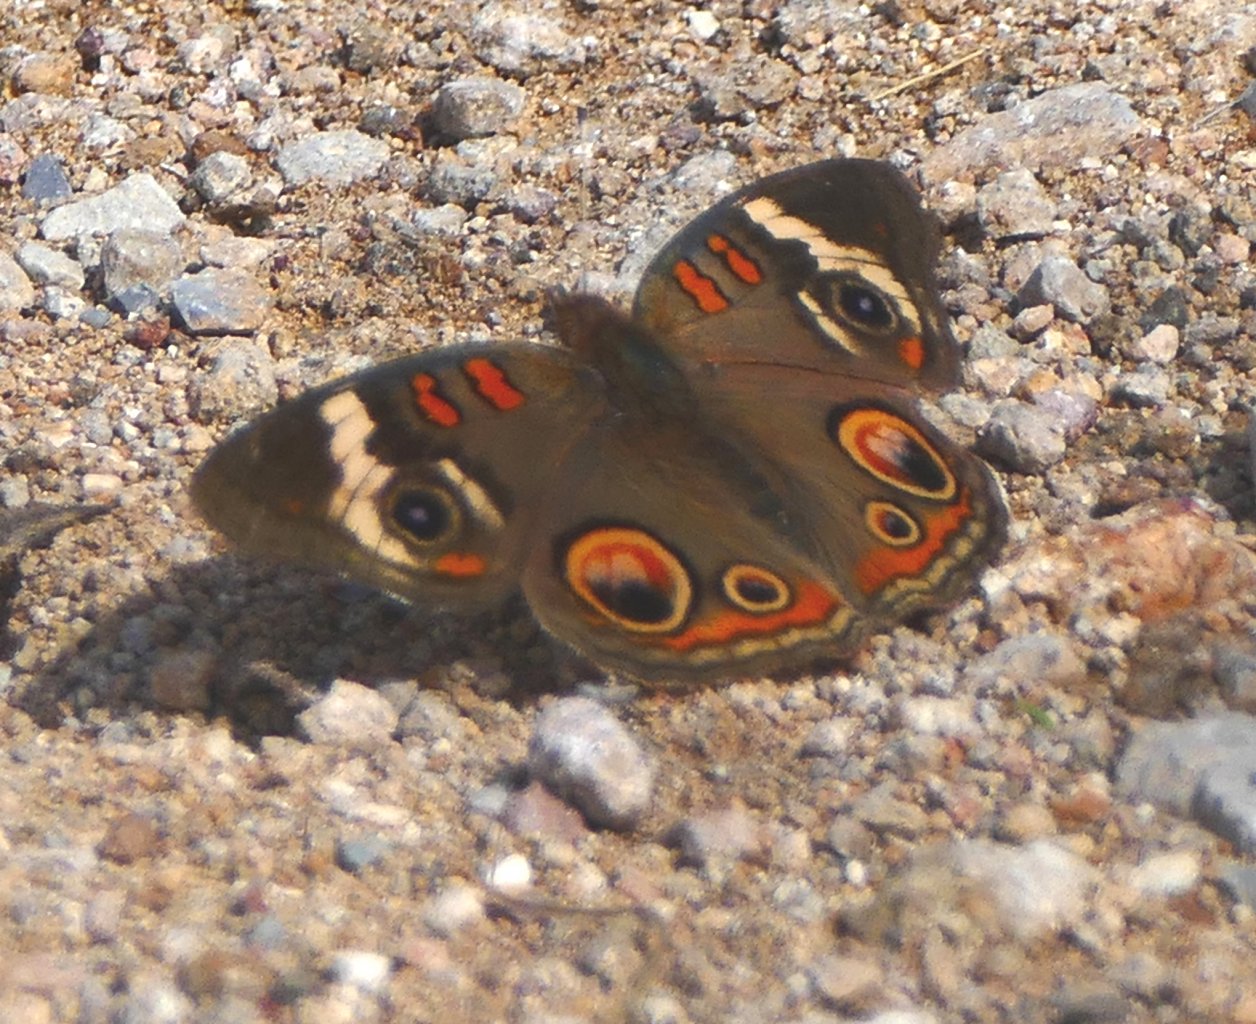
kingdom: Animalia
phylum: Arthropoda
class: Insecta
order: Lepidoptera
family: Nymphalidae
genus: Junonia
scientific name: Junonia coenia
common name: Common Buckeye
